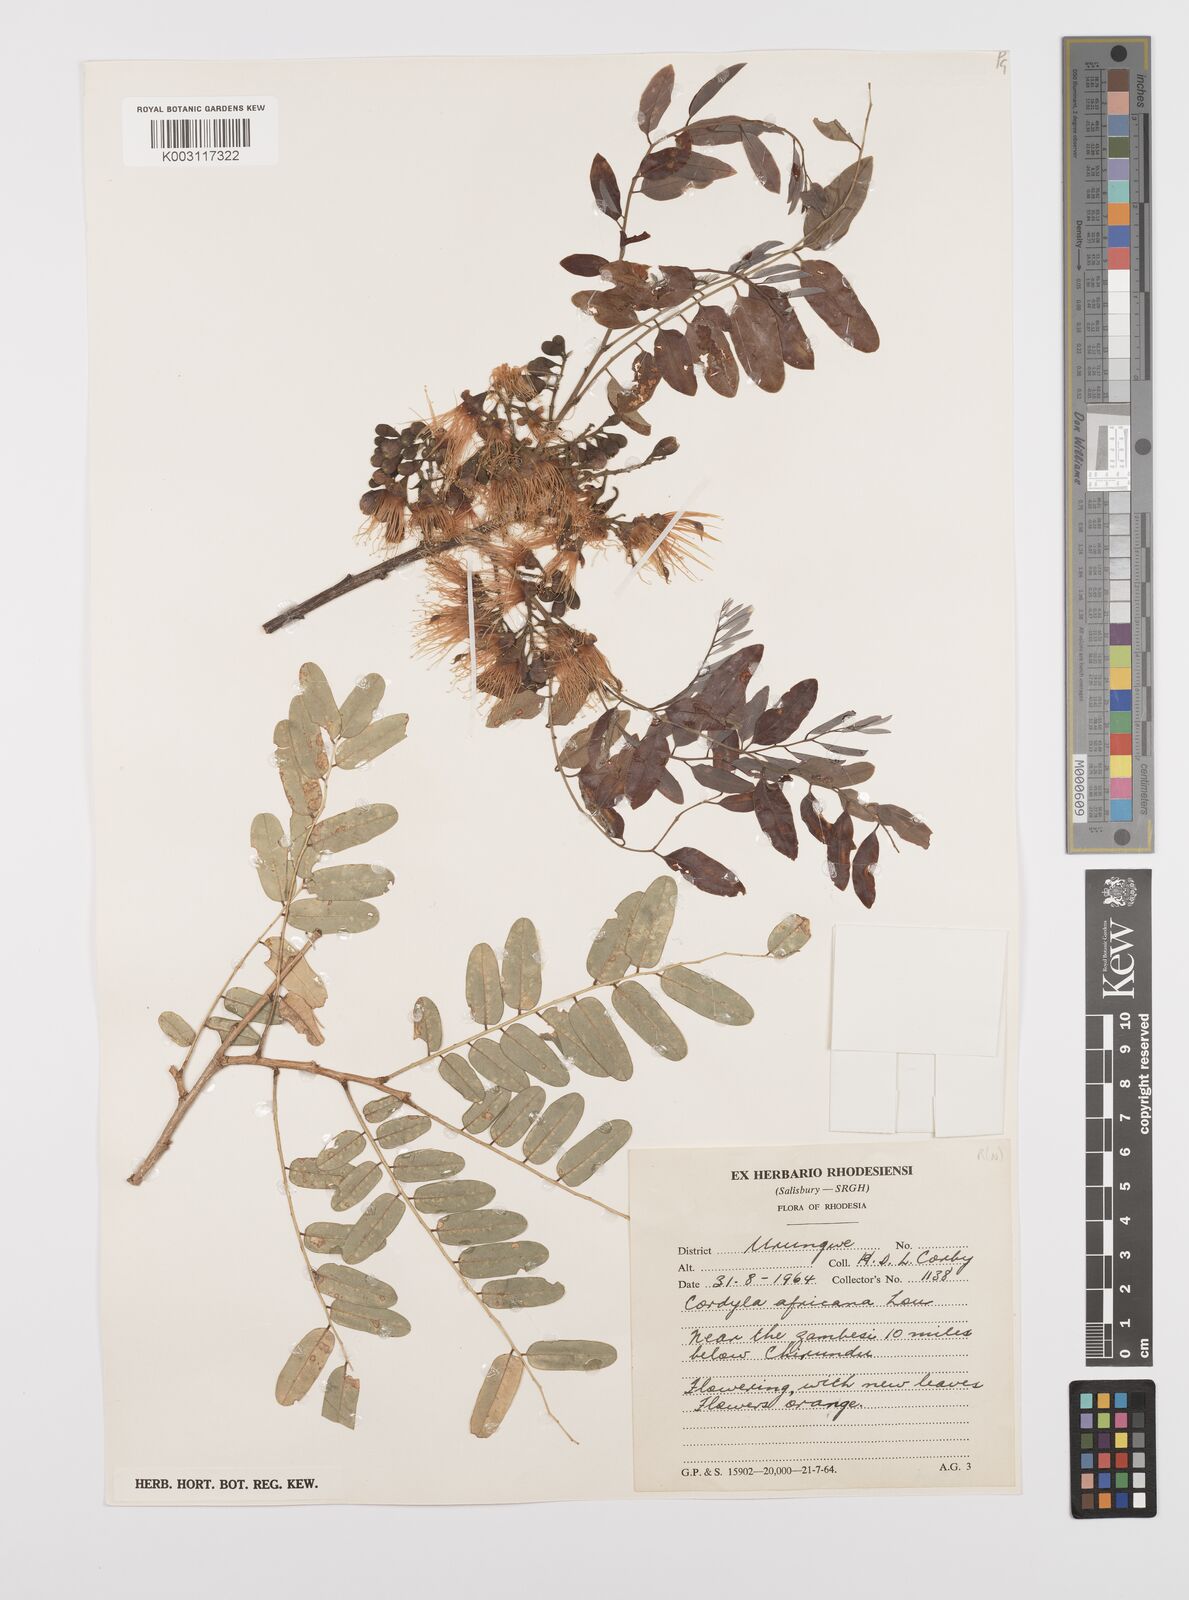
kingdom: Plantae
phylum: Tracheophyta
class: Magnoliopsida
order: Fabales
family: Fabaceae
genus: Cordyla
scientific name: Cordyla africana
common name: Wild mango
